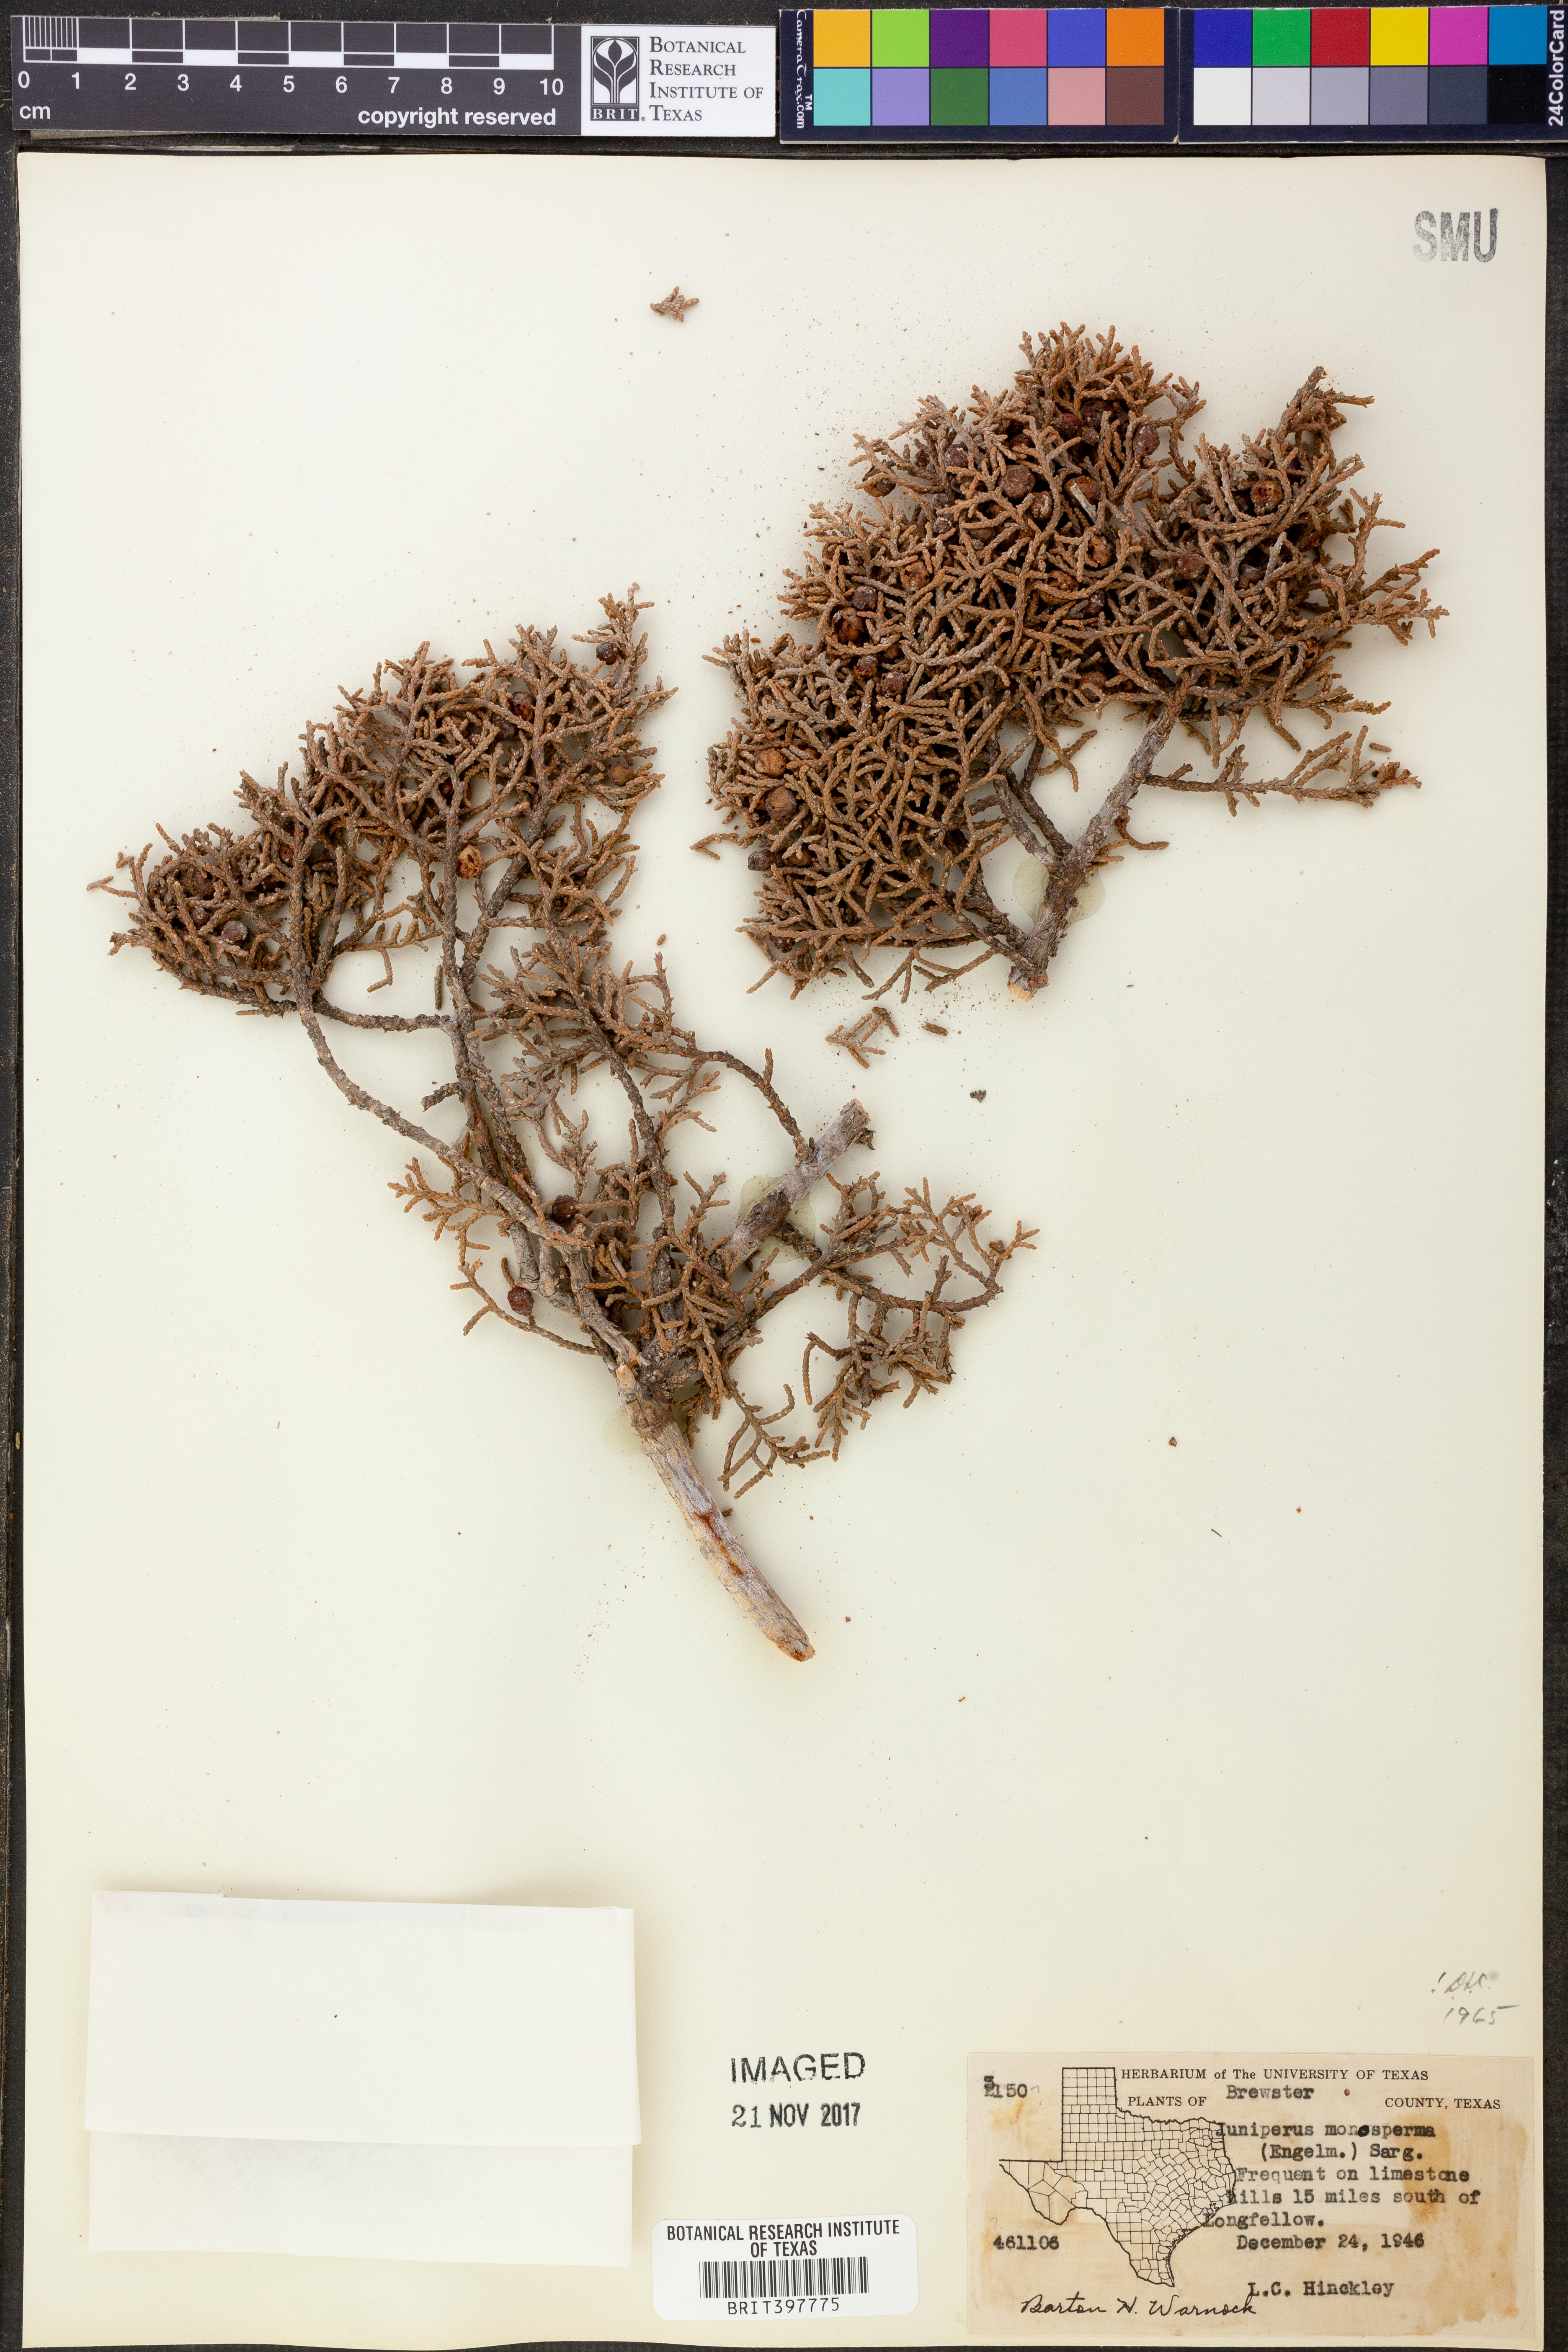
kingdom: Plantae
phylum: Tracheophyta
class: Pinopsida
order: Pinales
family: Cupressaceae
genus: Juniperus
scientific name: Juniperus monosperma
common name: One-seed juniper
